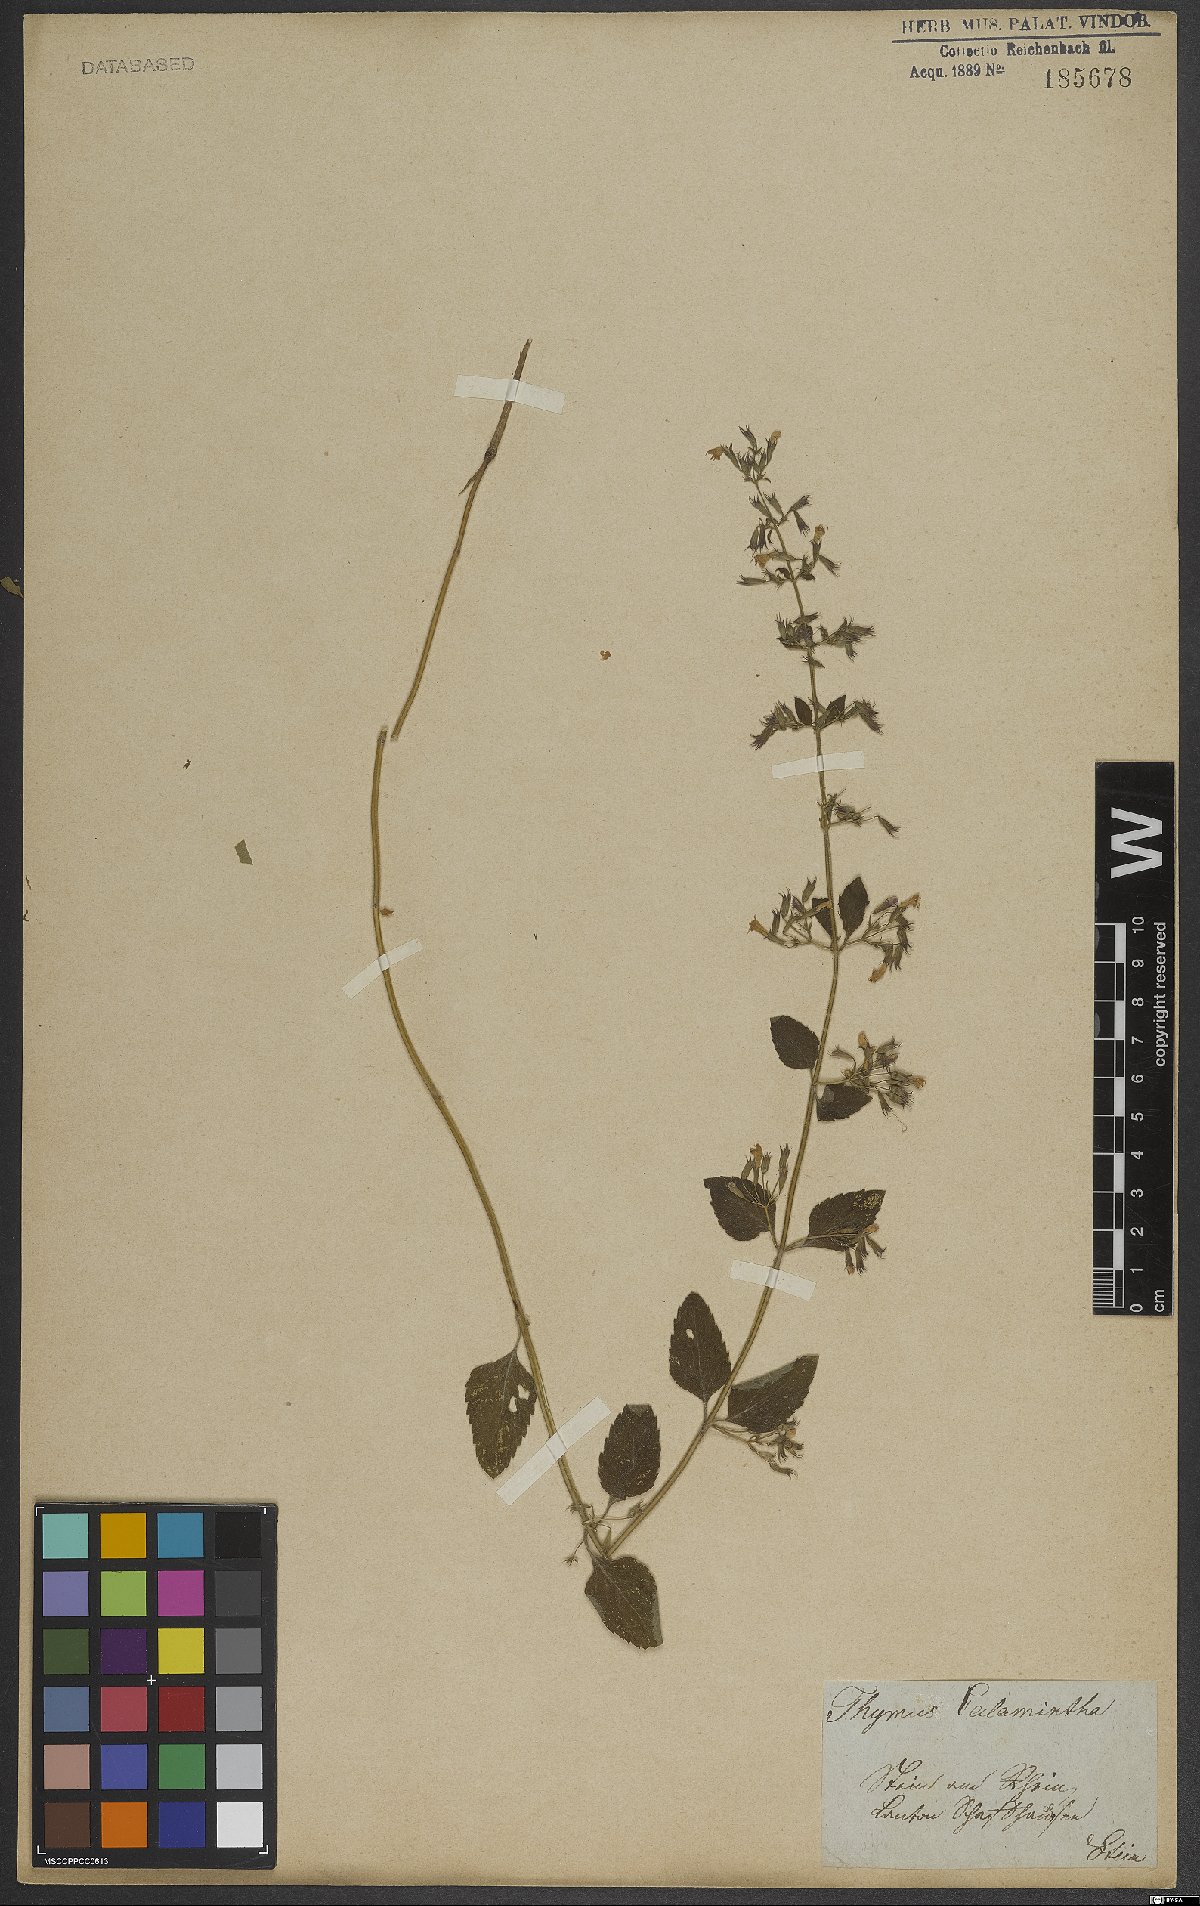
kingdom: Plantae
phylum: Tracheophyta
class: Magnoliopsida
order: Lamiales
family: Lamiaceae
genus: Thymus
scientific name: Thymus
